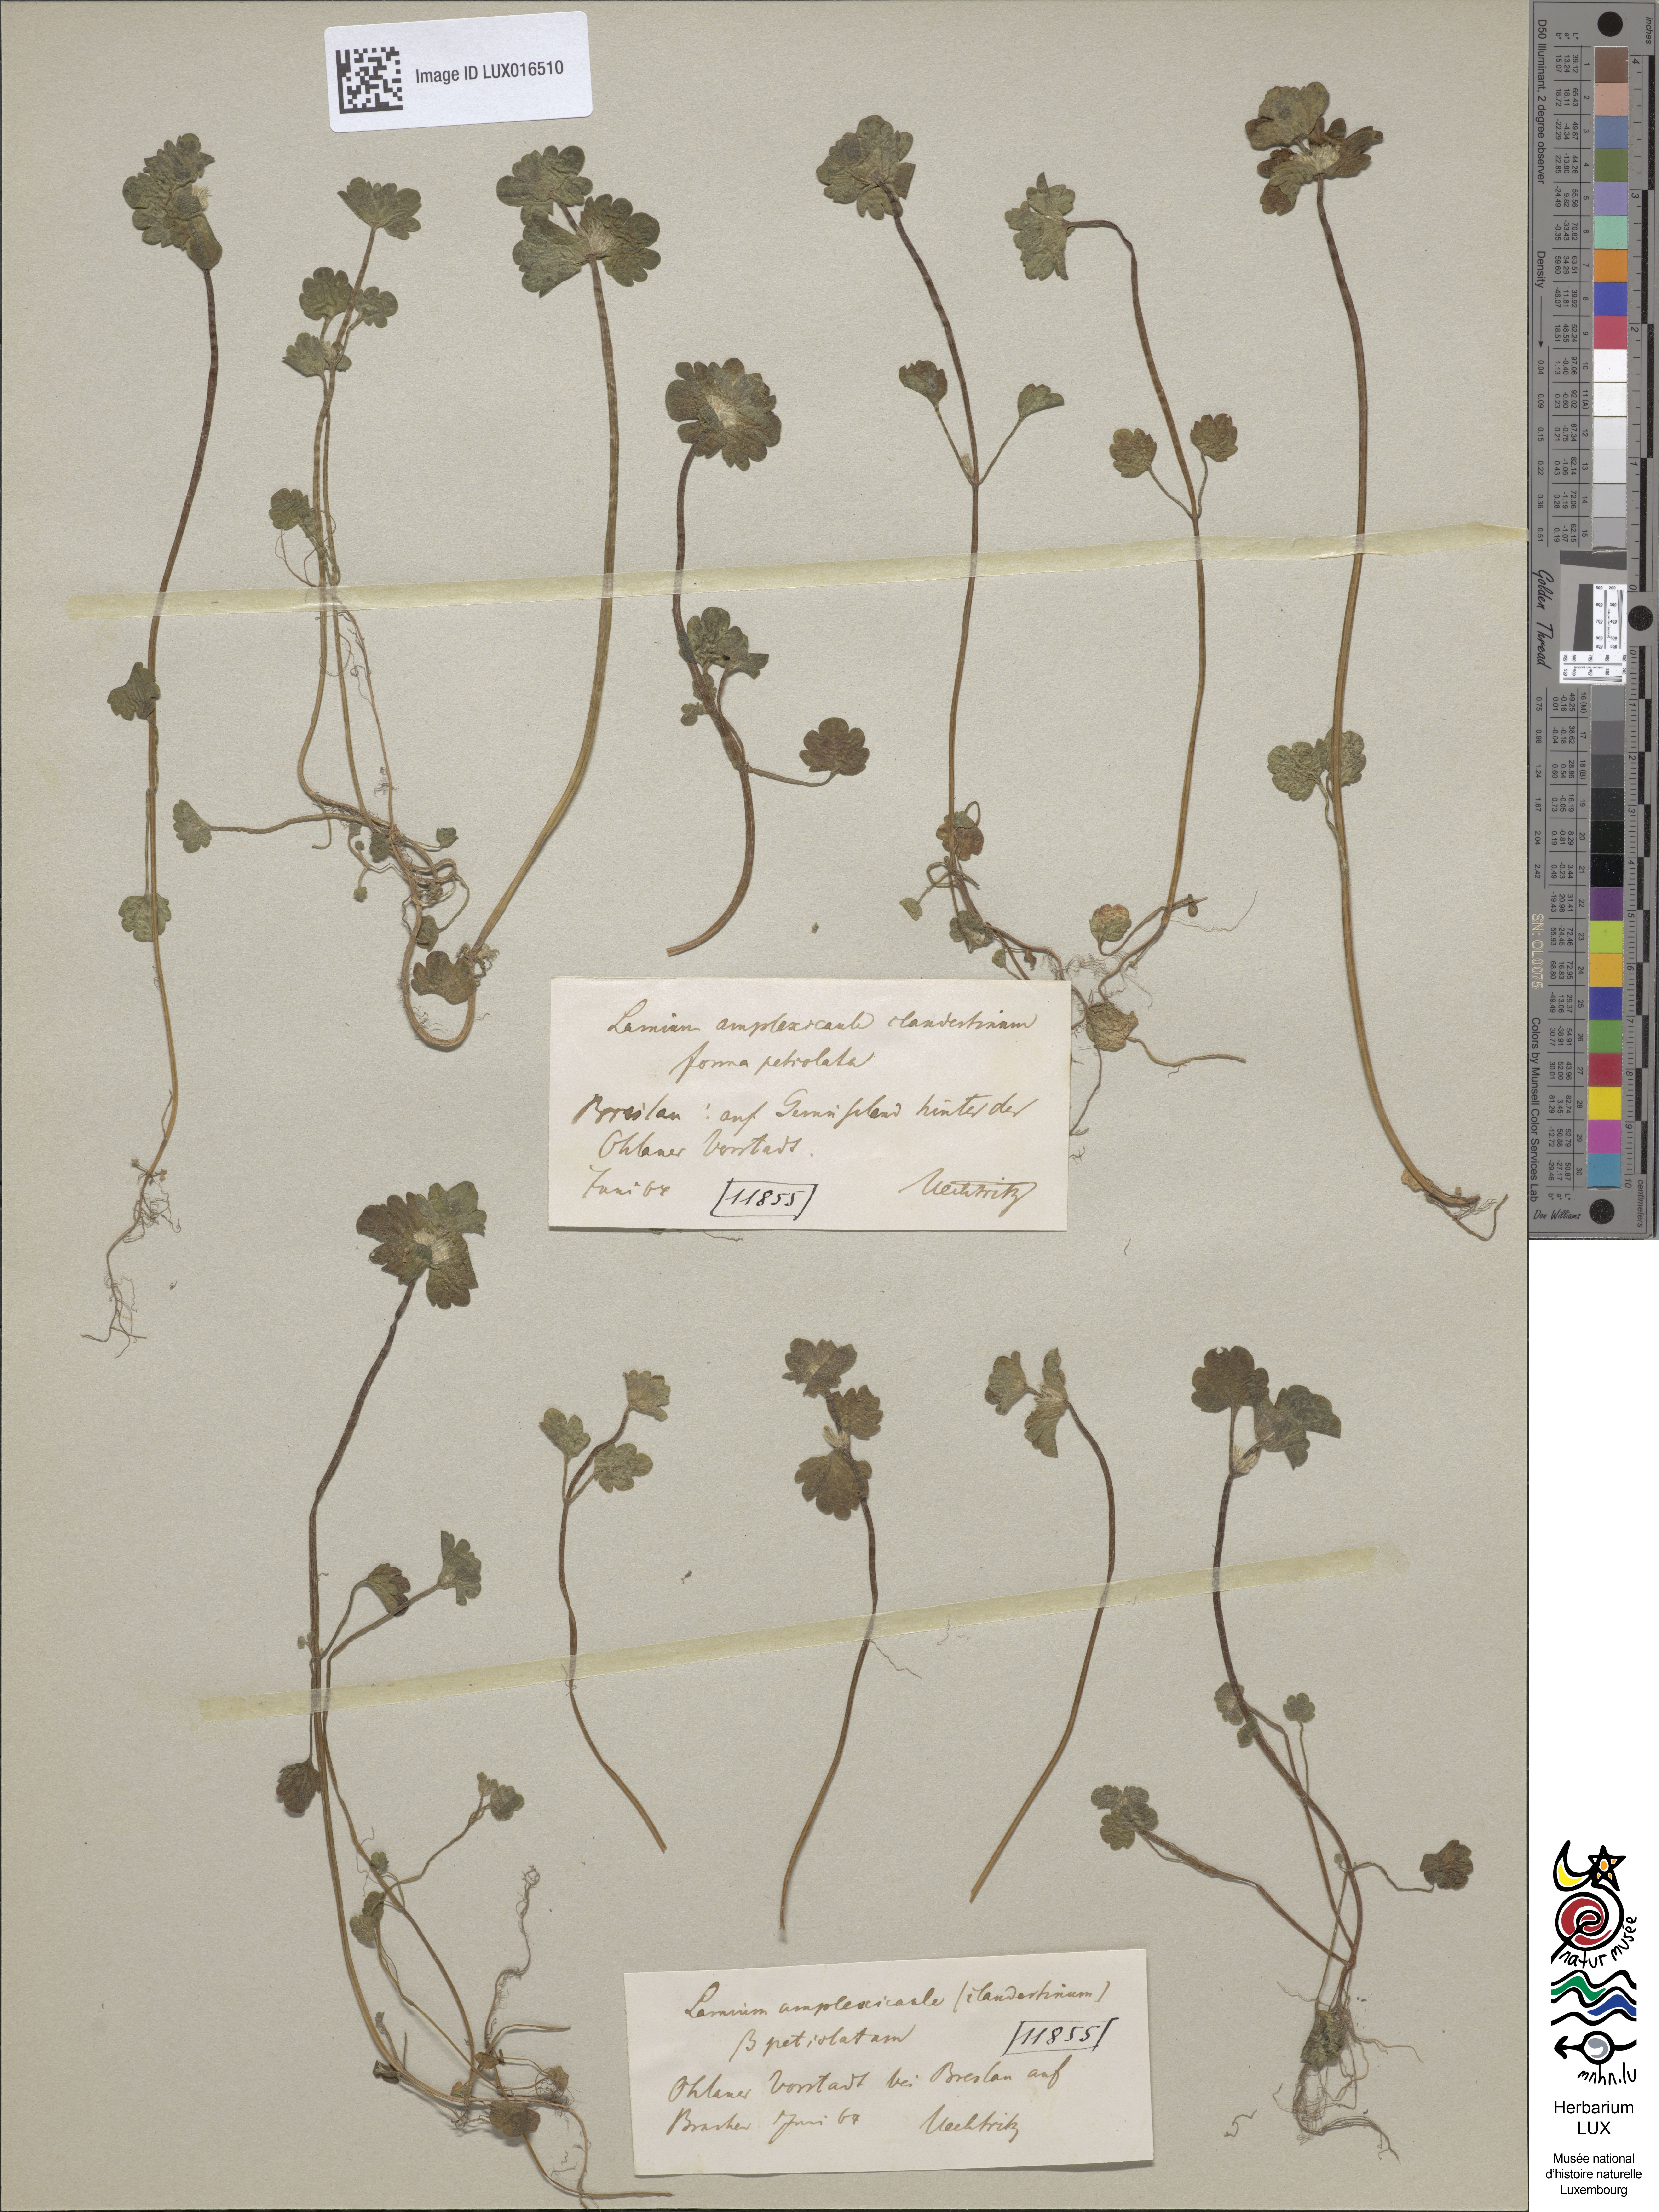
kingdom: Plantae
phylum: Tracheophyta
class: Magnoliopsida
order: Lamiales
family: Lamiaceae
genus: Lamium
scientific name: Lamium amplexicaule
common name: Henbit dead-nettle
